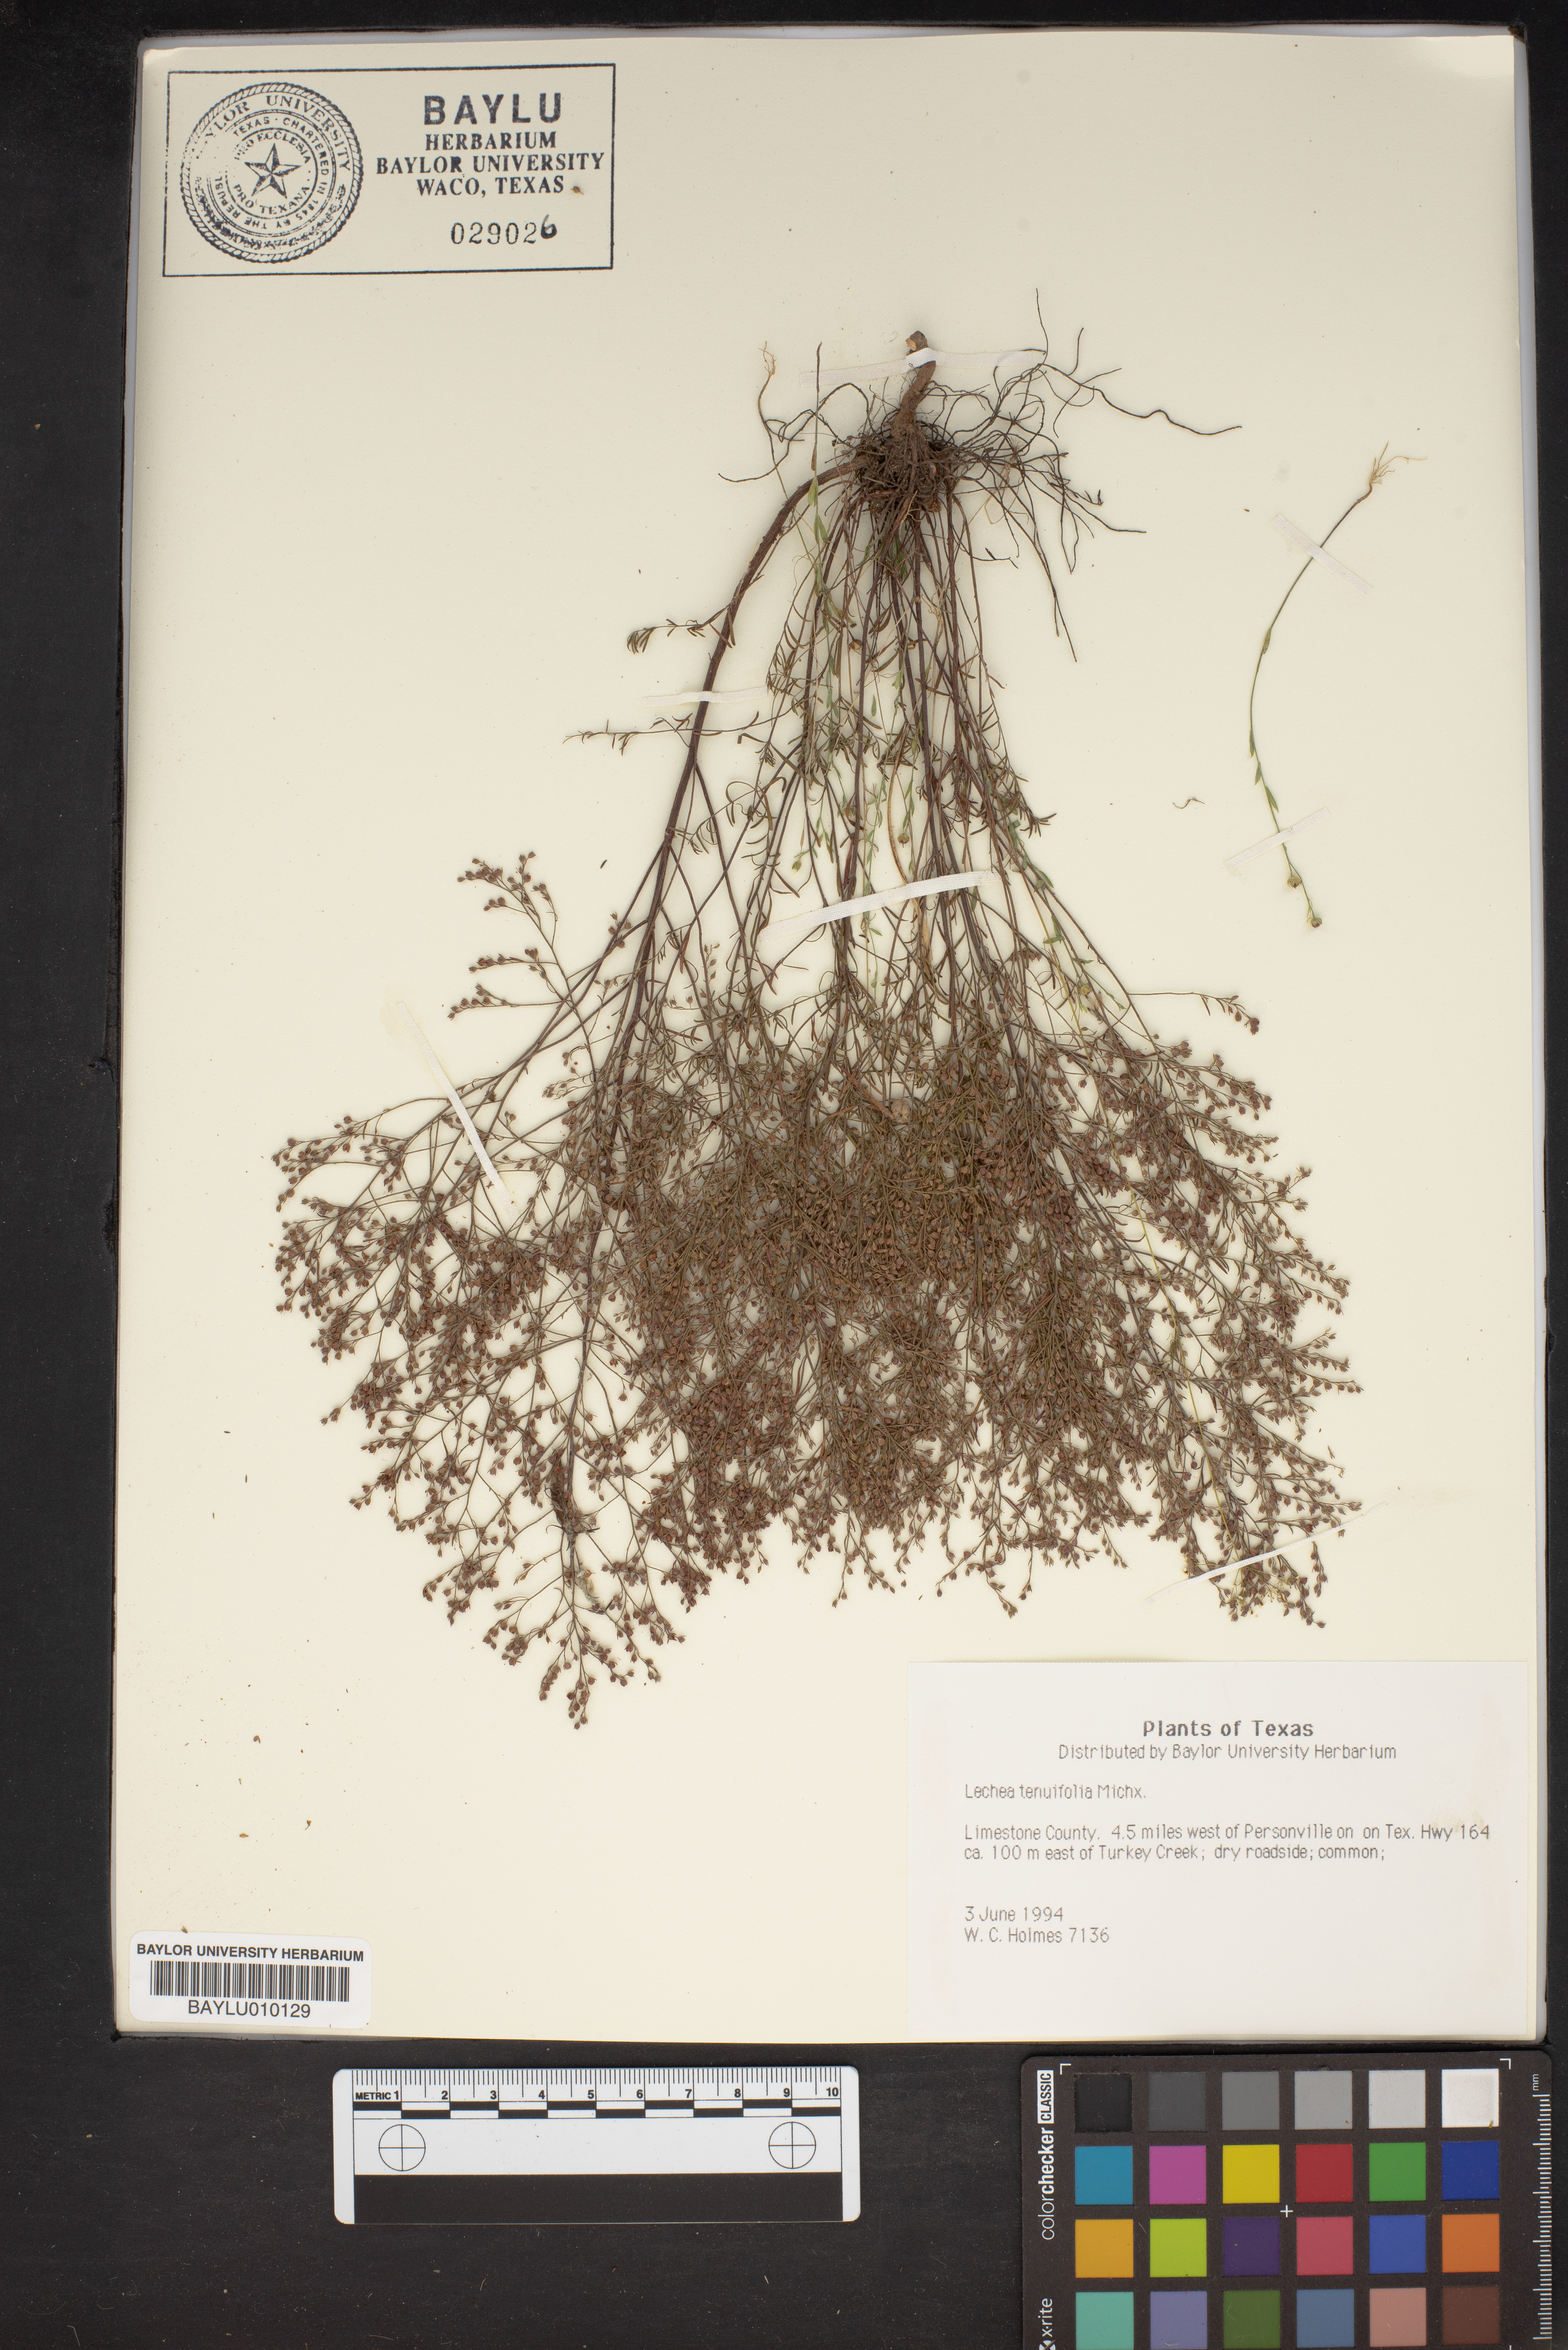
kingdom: Plantae
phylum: Tracheophyta
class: Magnoliopsida
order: Malvales
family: Cistaceae
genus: Lechea
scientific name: Lechea tenuifolia
